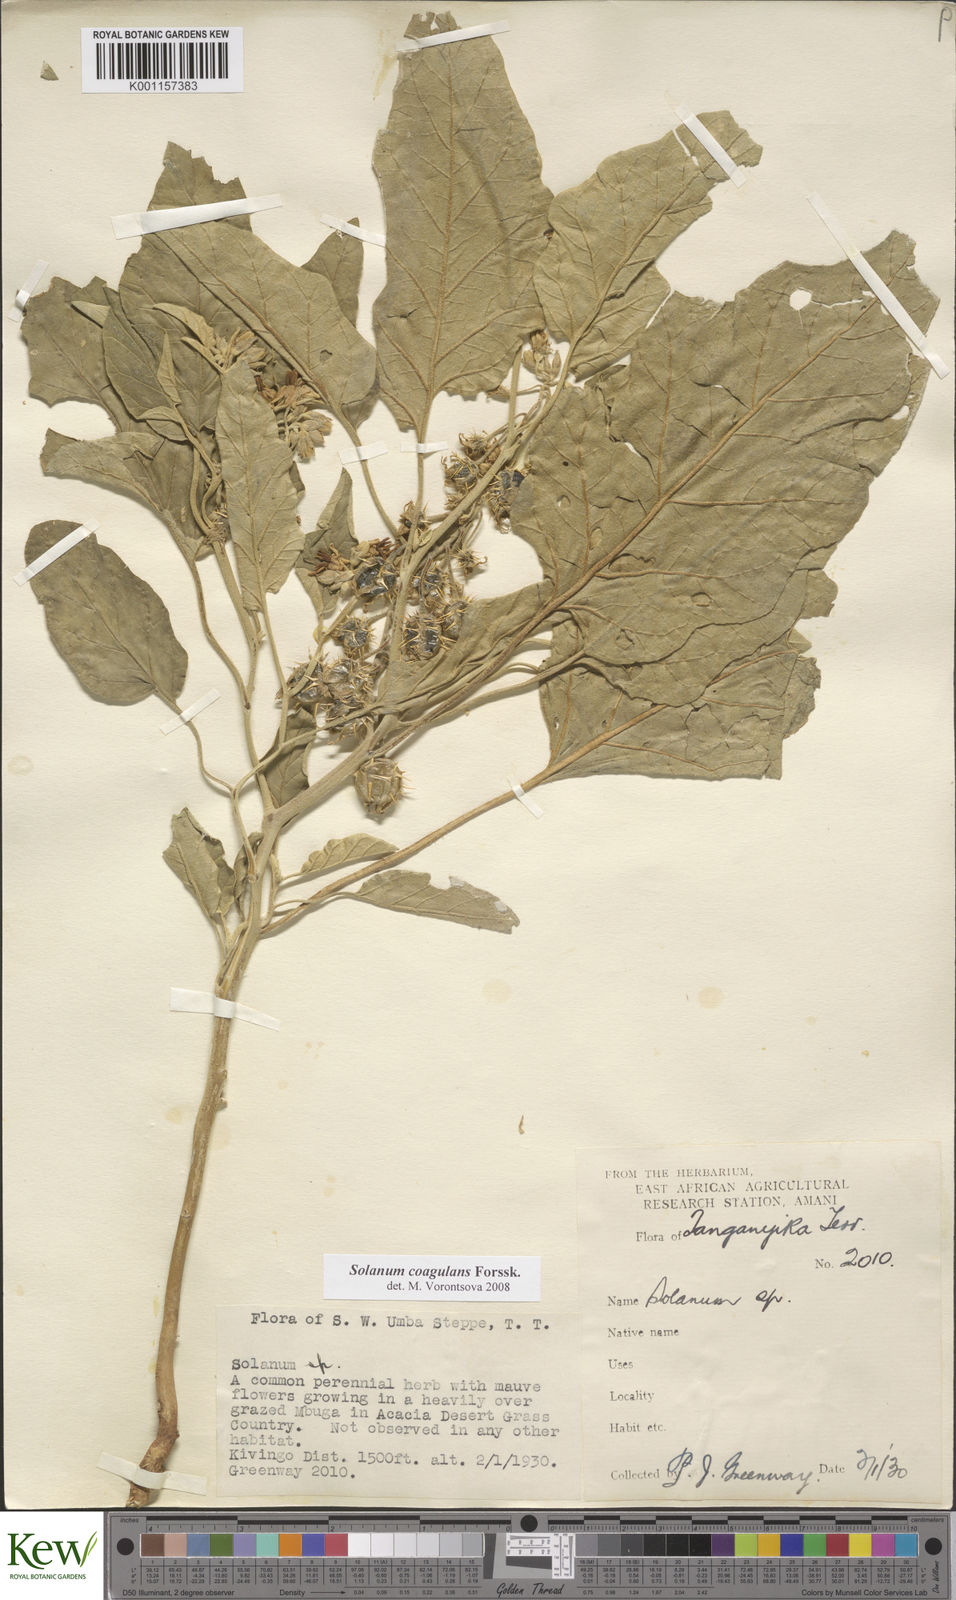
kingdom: Plantae
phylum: Tracheophyta
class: Magnoliopsida
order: Solanales
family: Solanaceae
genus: Solanum
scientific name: Solanum coagulans
